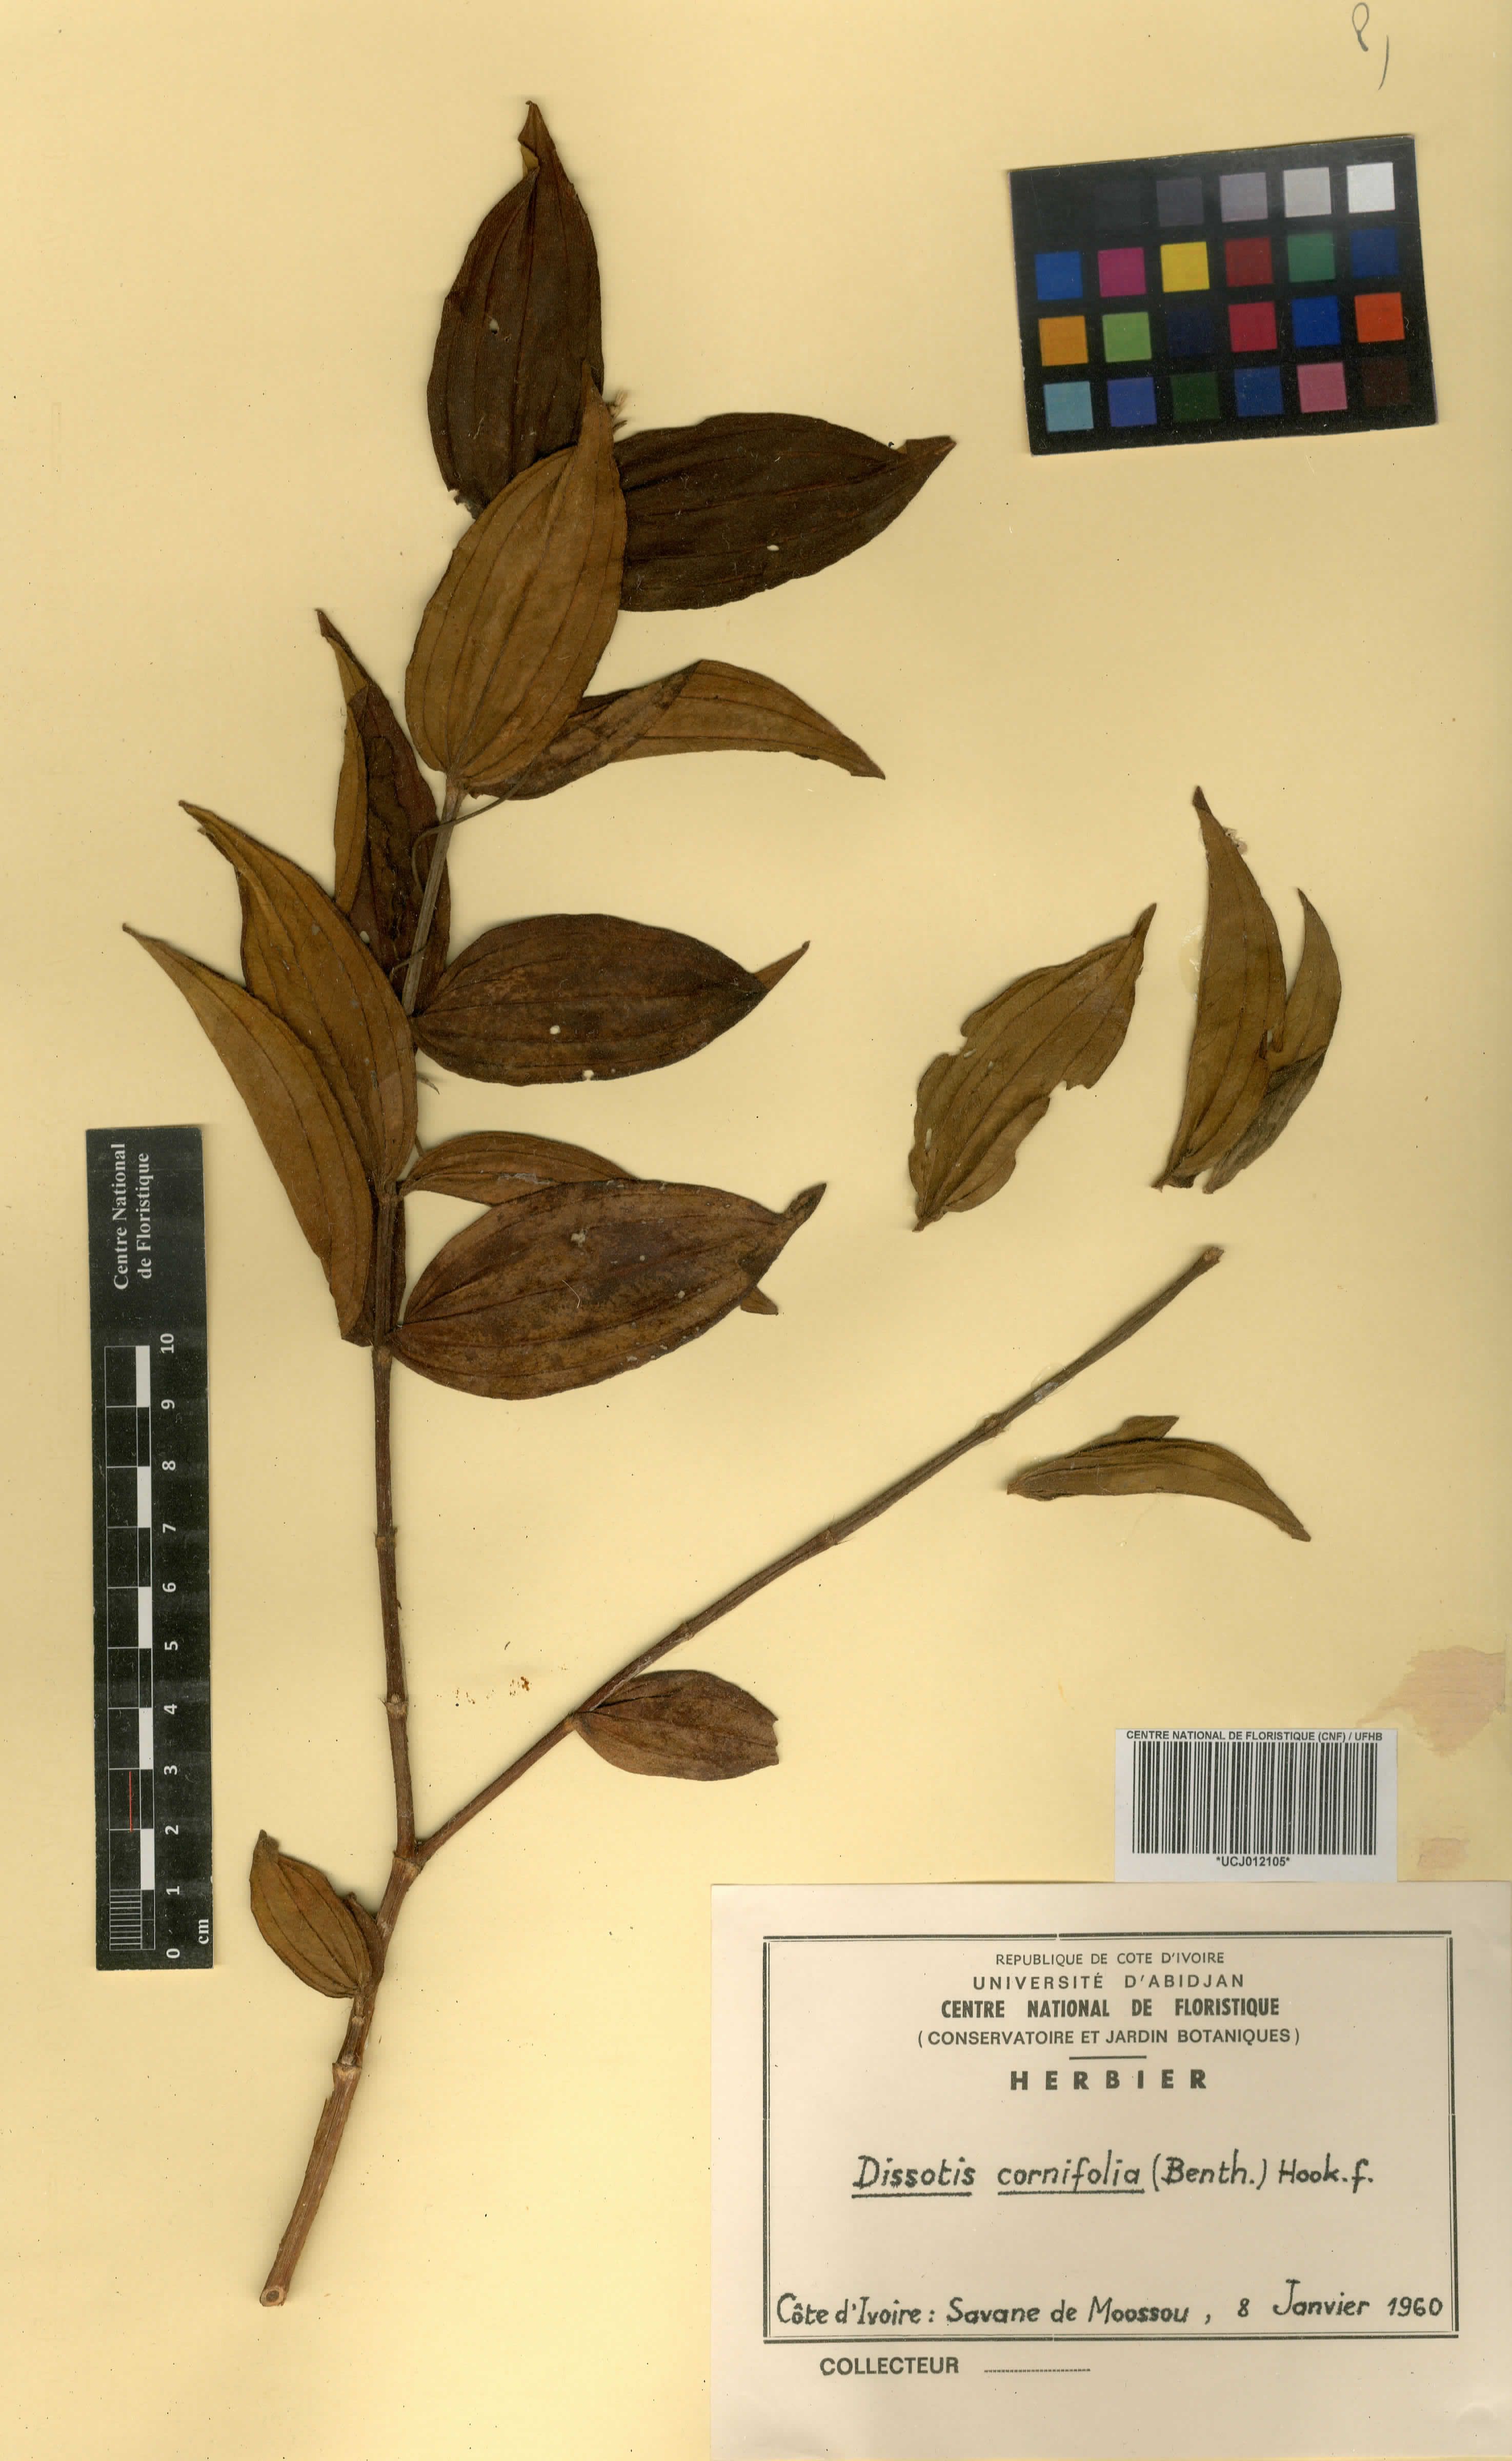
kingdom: Plantae
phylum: Tracheophyta
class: Magnoliopsida
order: Myrtales
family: Melastomataceae
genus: Melastomastrum
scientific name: Melastomastrum cornifolium
